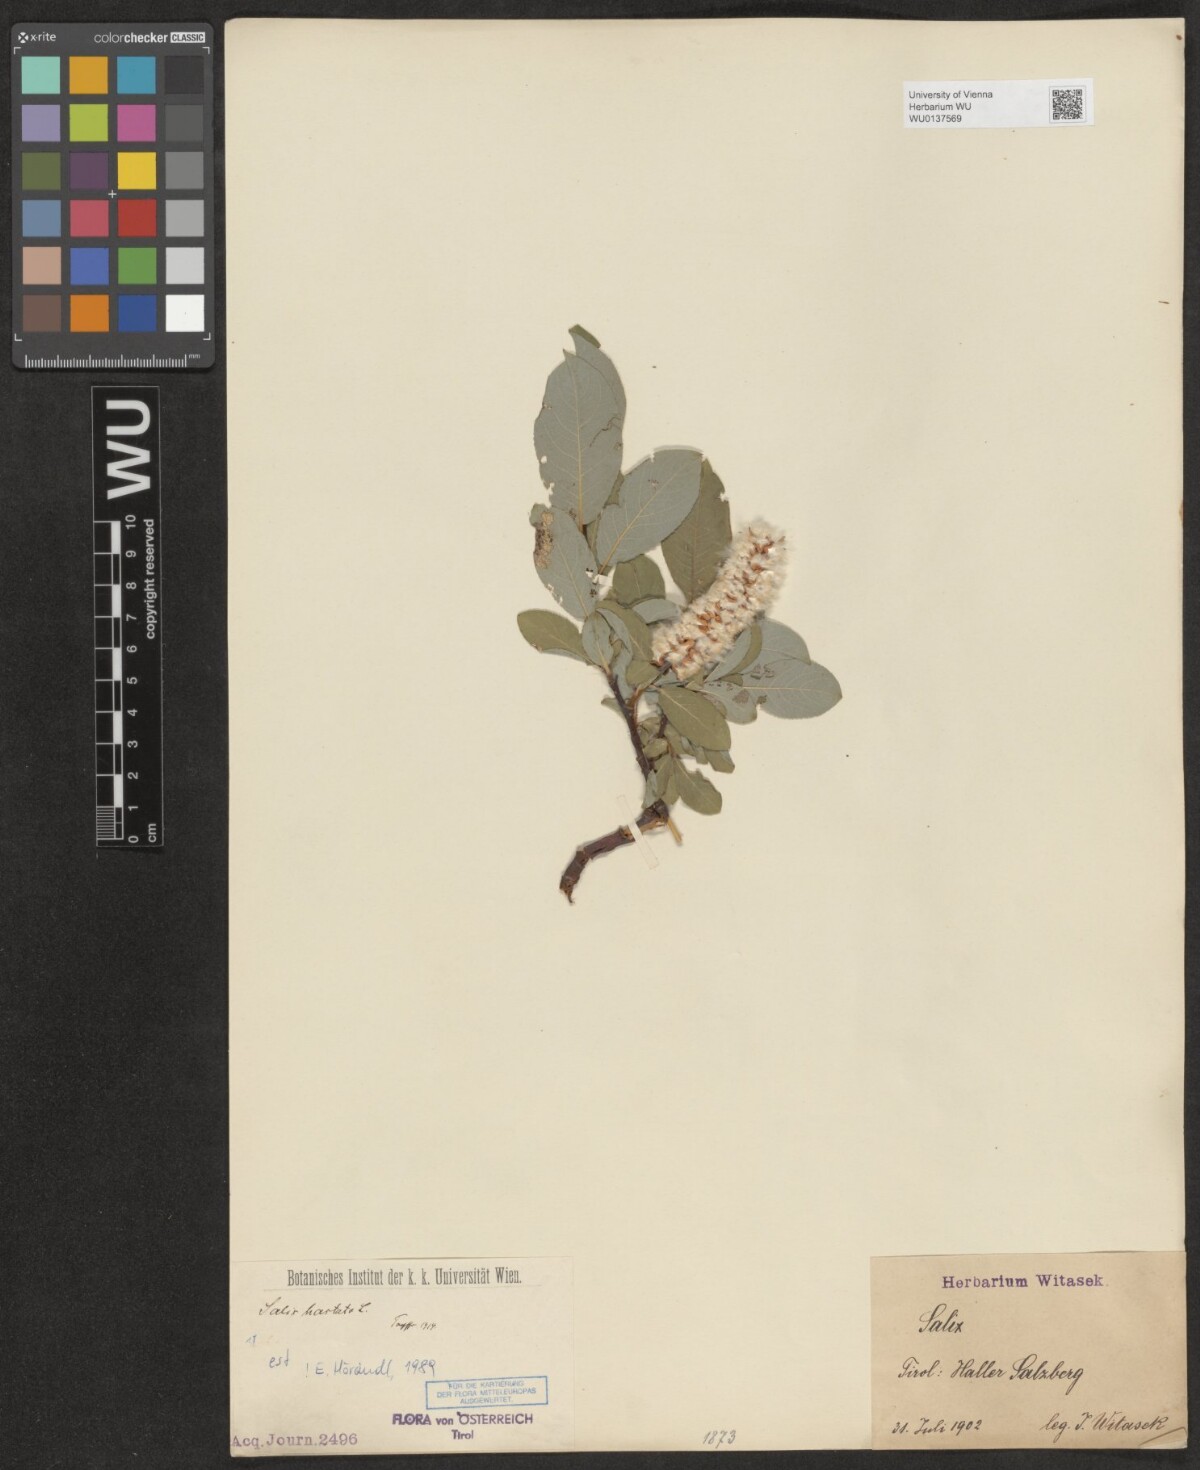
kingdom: Plantae
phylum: Tracheophyta
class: Magnoliopsida
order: Malpighiales
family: Salicaceae
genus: Salix
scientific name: Salix hastata
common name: Halberd willow
